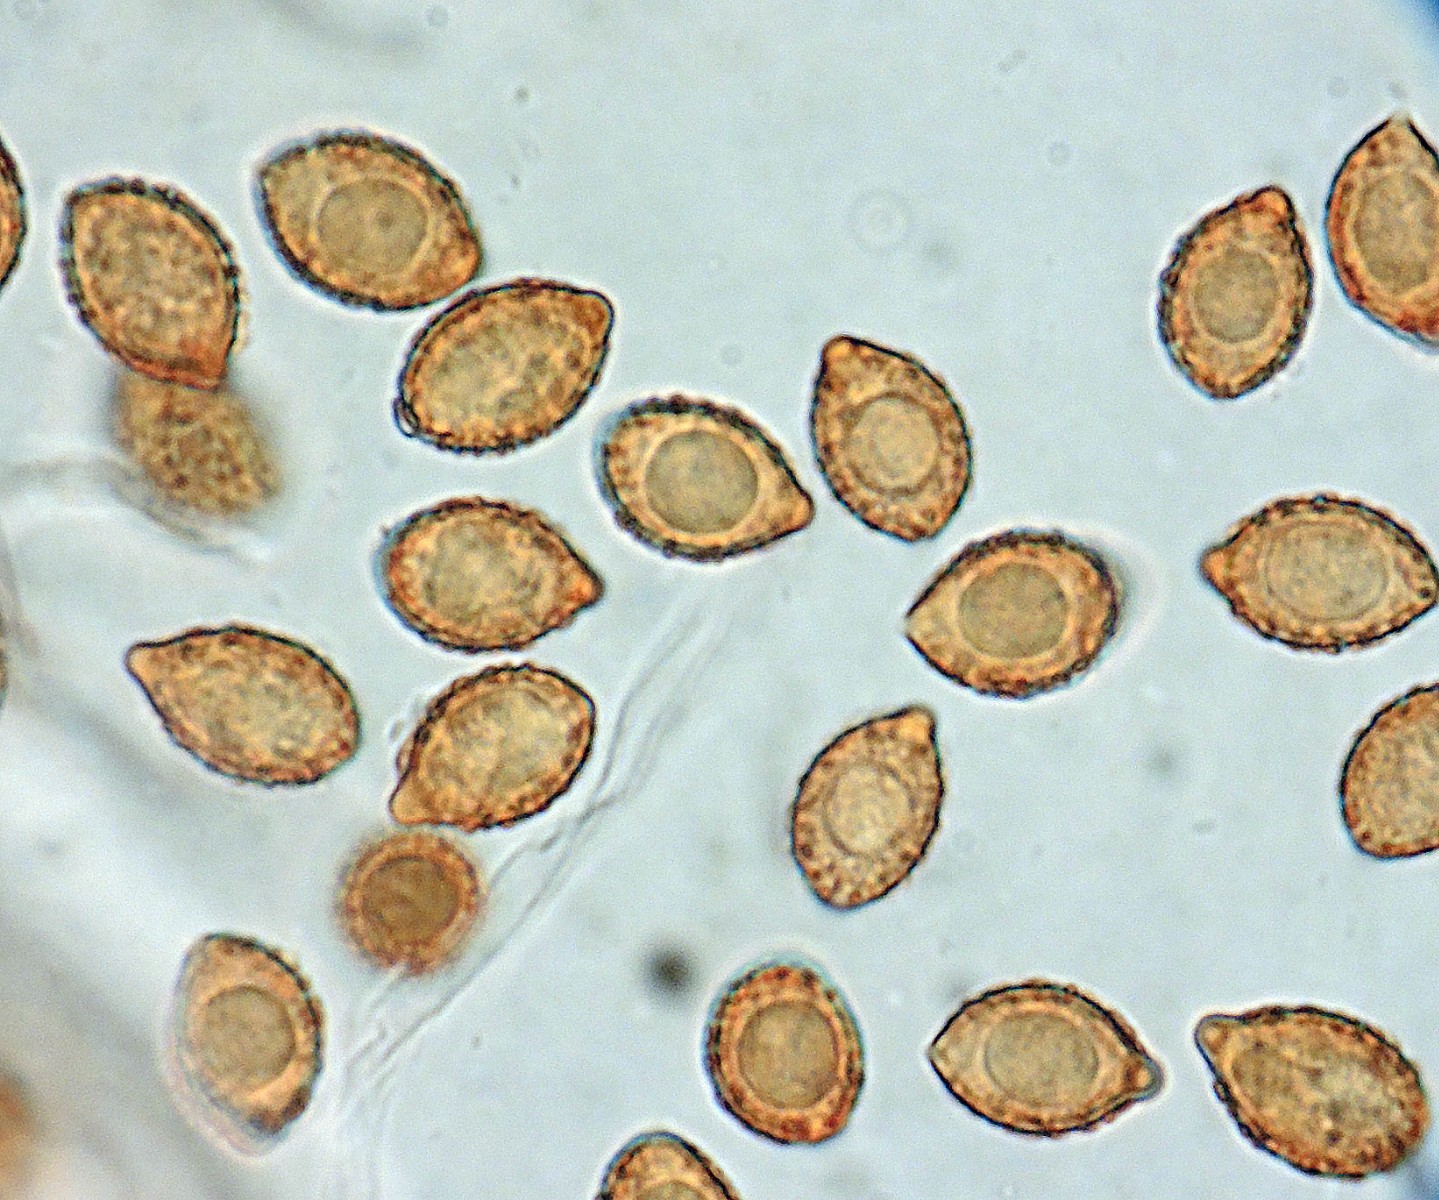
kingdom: Fungi
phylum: Basidiomycota
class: Agaricomycetes
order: Agaricales
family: Cortinariaceae
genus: Cortinarius
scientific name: Cortinarius anserinus
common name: bøge-slørhat
